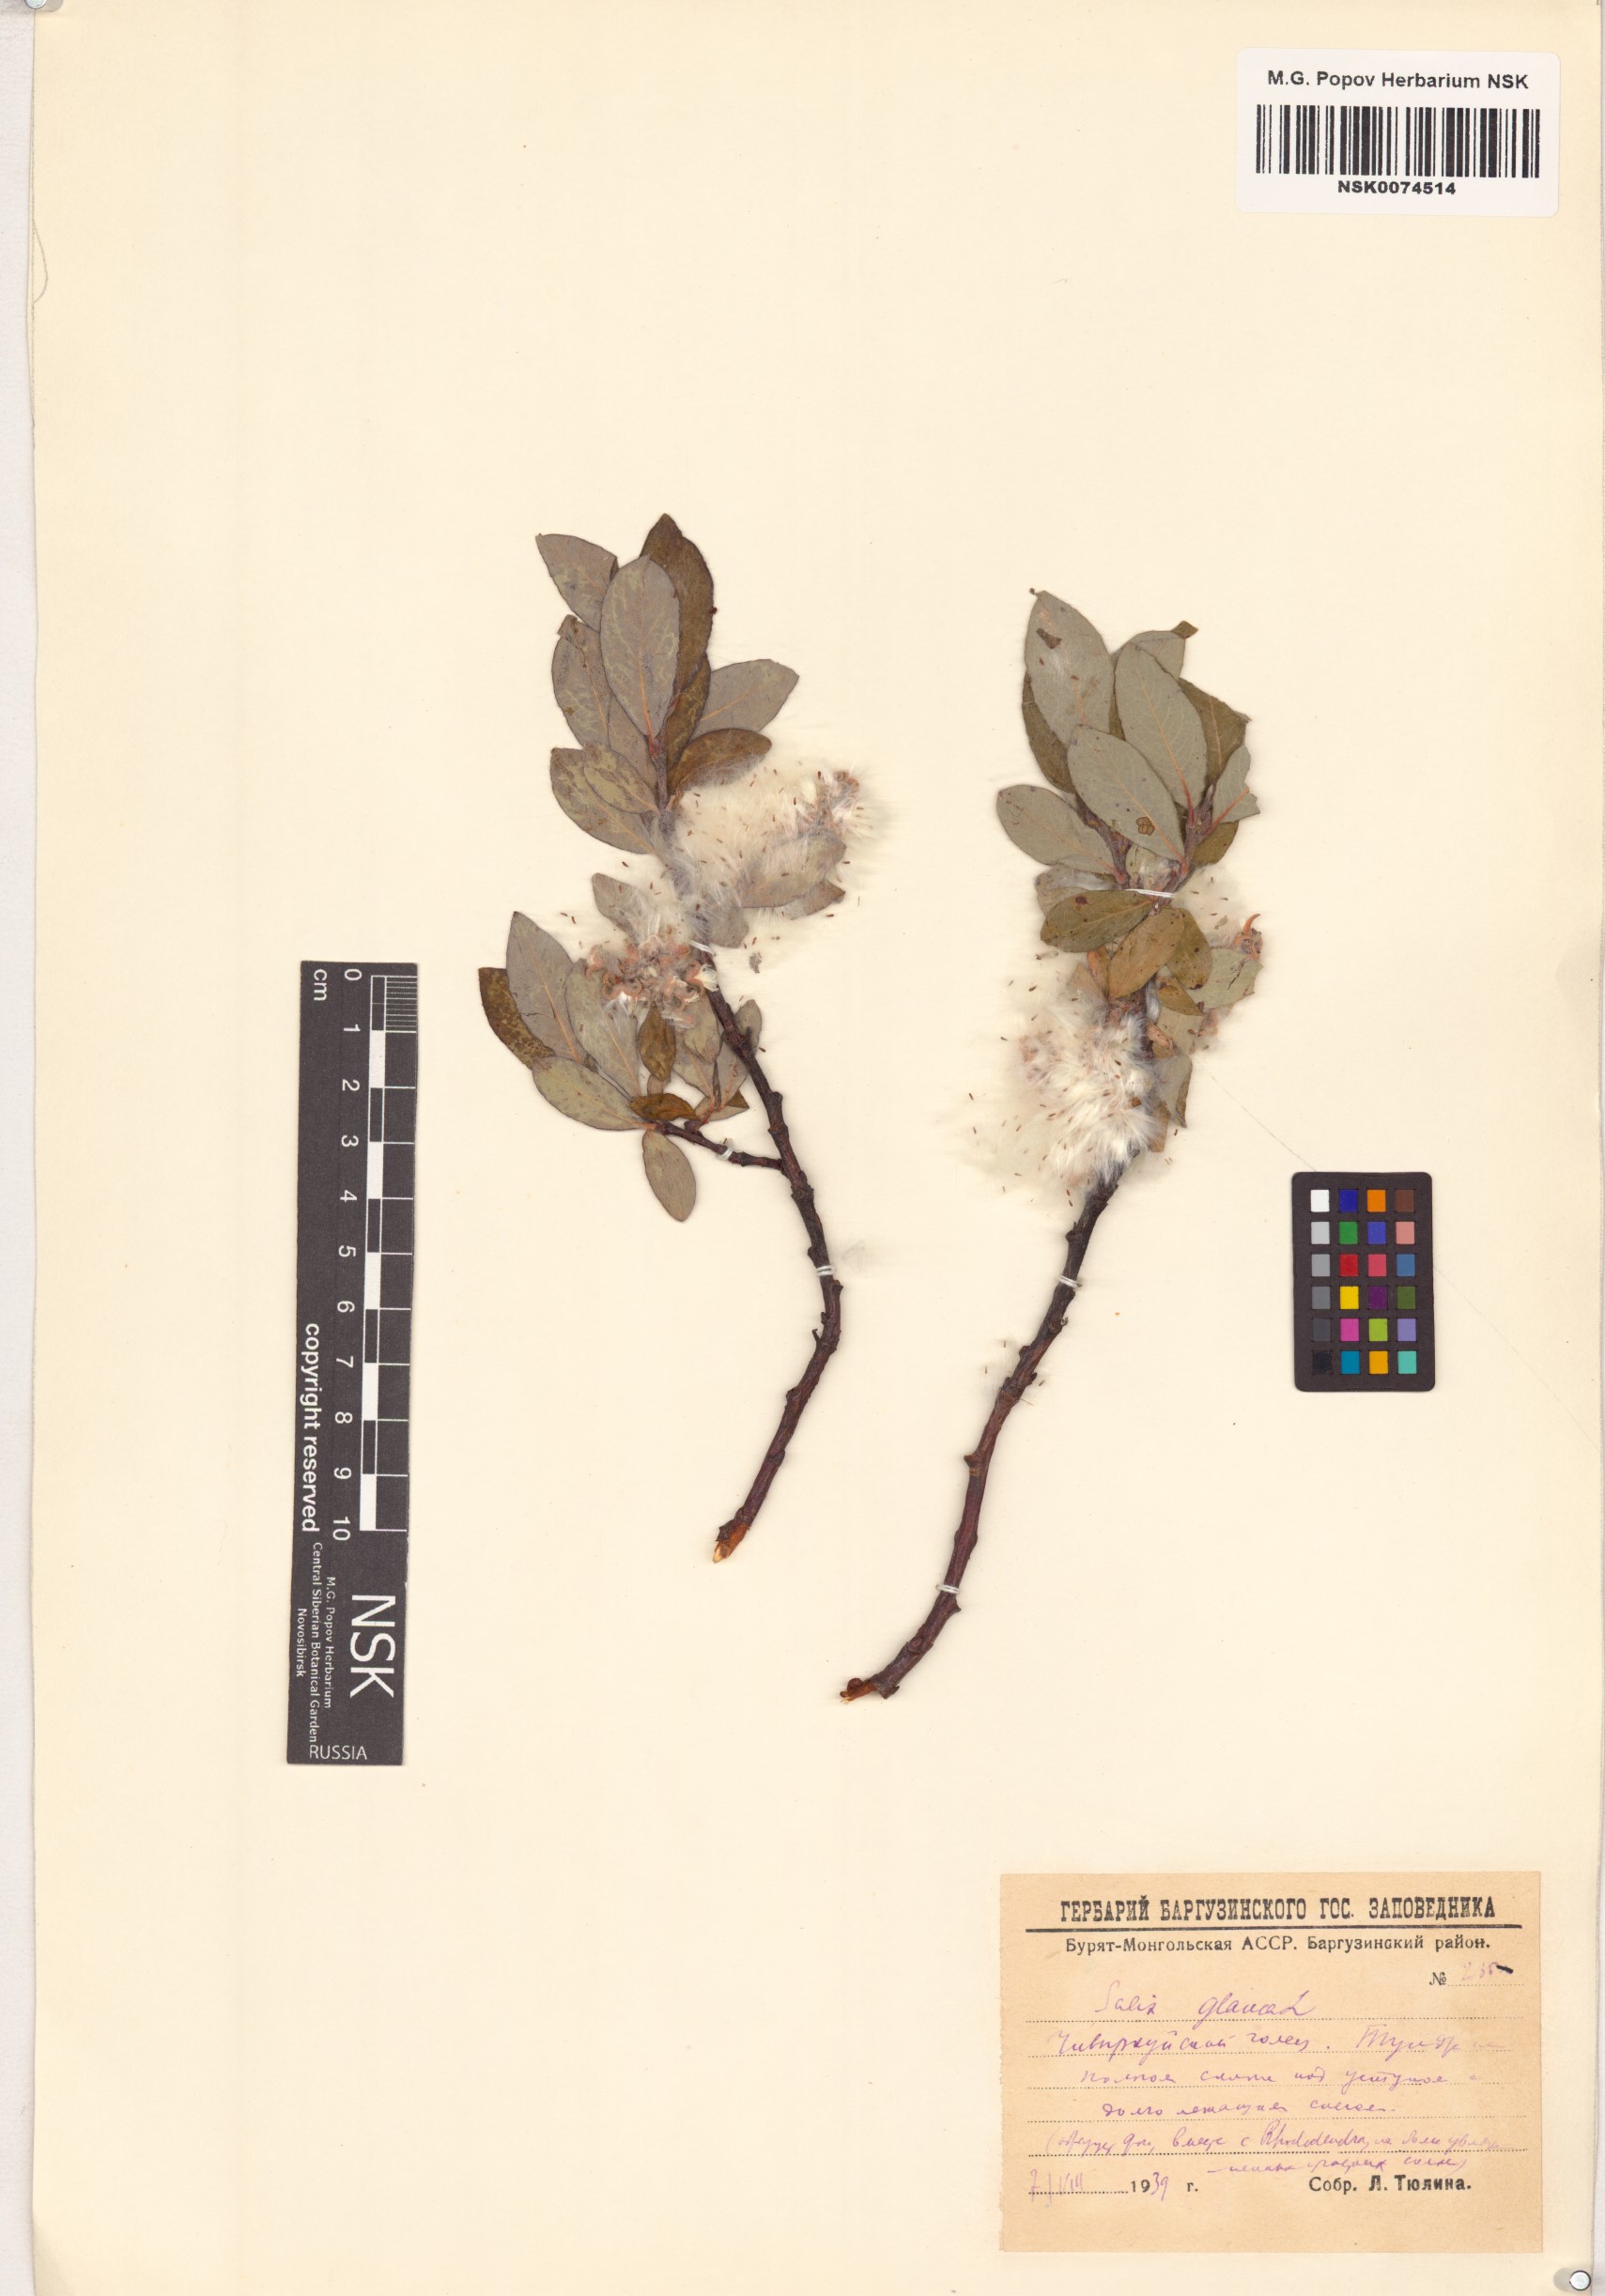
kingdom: Plantae
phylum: Tracheophyta
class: Magnoliopsida
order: Malpighiales
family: Salicaceae
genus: Salix
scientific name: Salix glauca
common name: Glaucous willow
